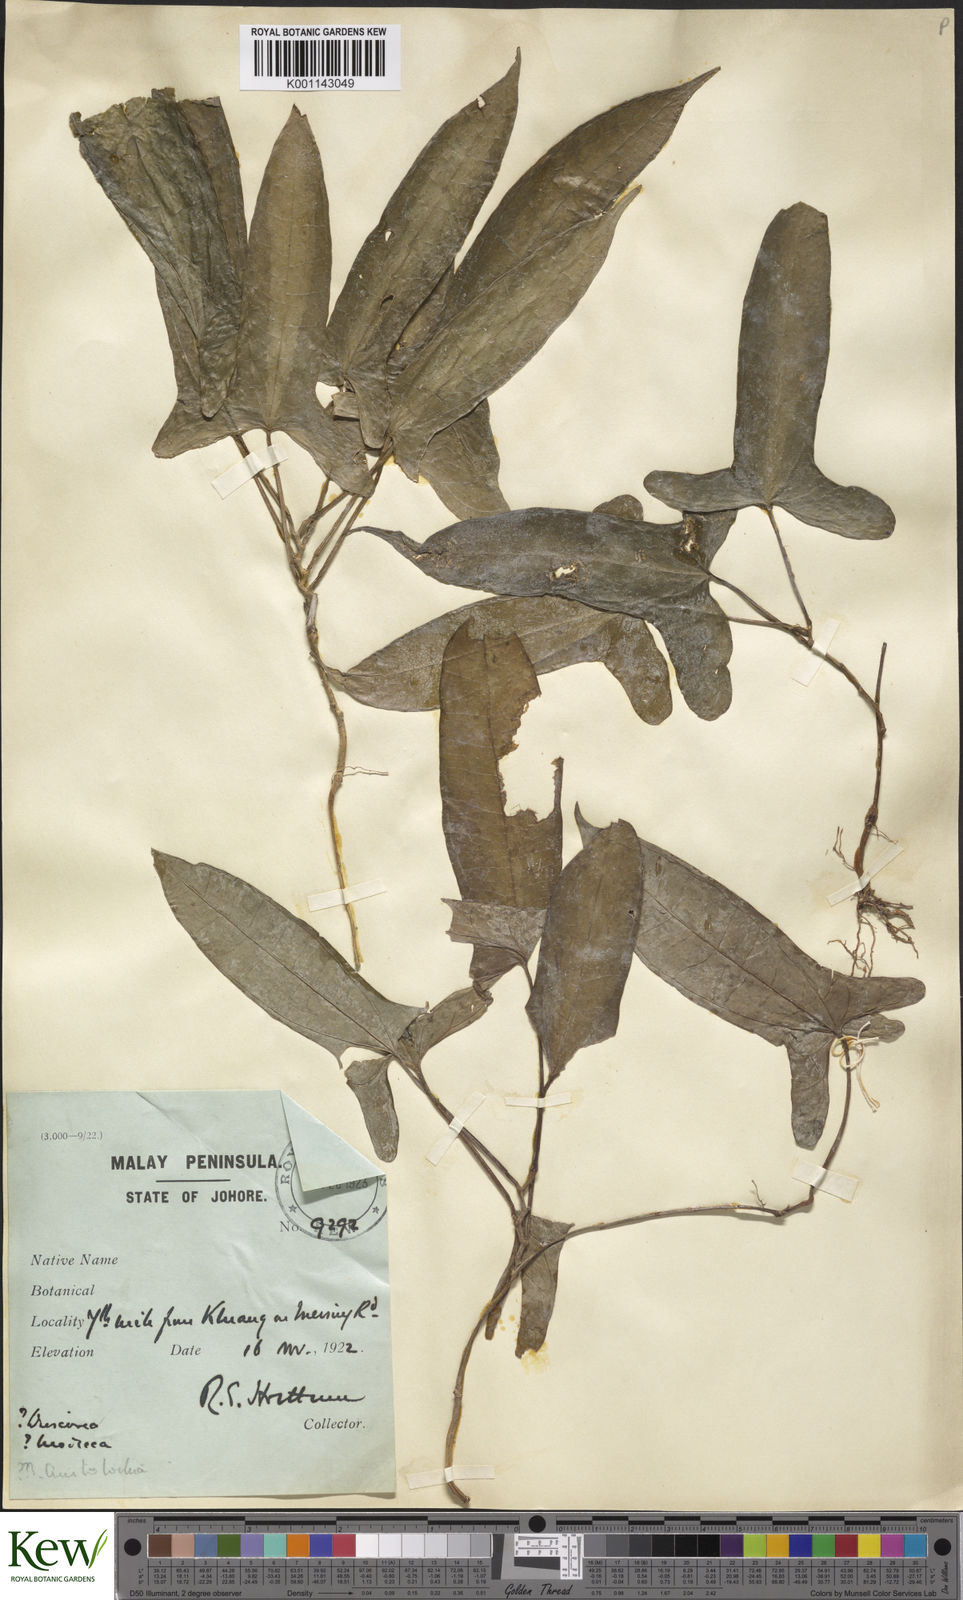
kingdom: Plantae
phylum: Tracheophyta
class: Liliopsida
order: Dioscoreales
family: Dioscoreaceae
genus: Dioscorea
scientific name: Dioscorea stenomeriflora
